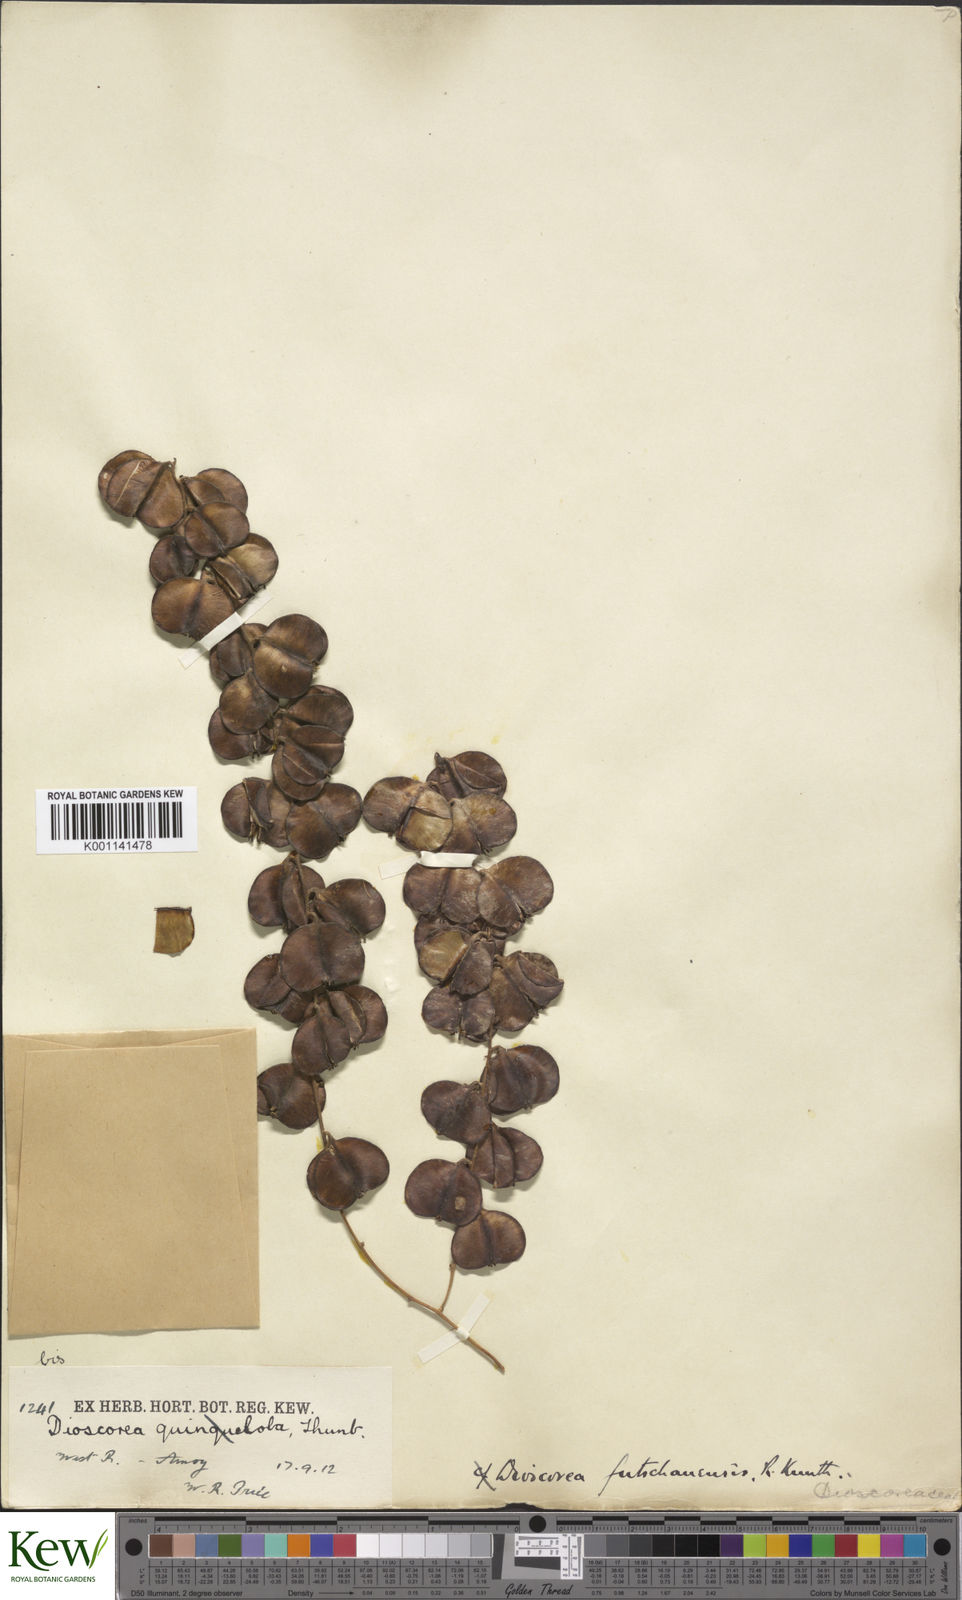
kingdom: Plantae
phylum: Tracheophyta
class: Liliopsida
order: Dioscoreales
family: Dioscoreaceae
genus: Dioscorea
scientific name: Dioscorea futschauensis
